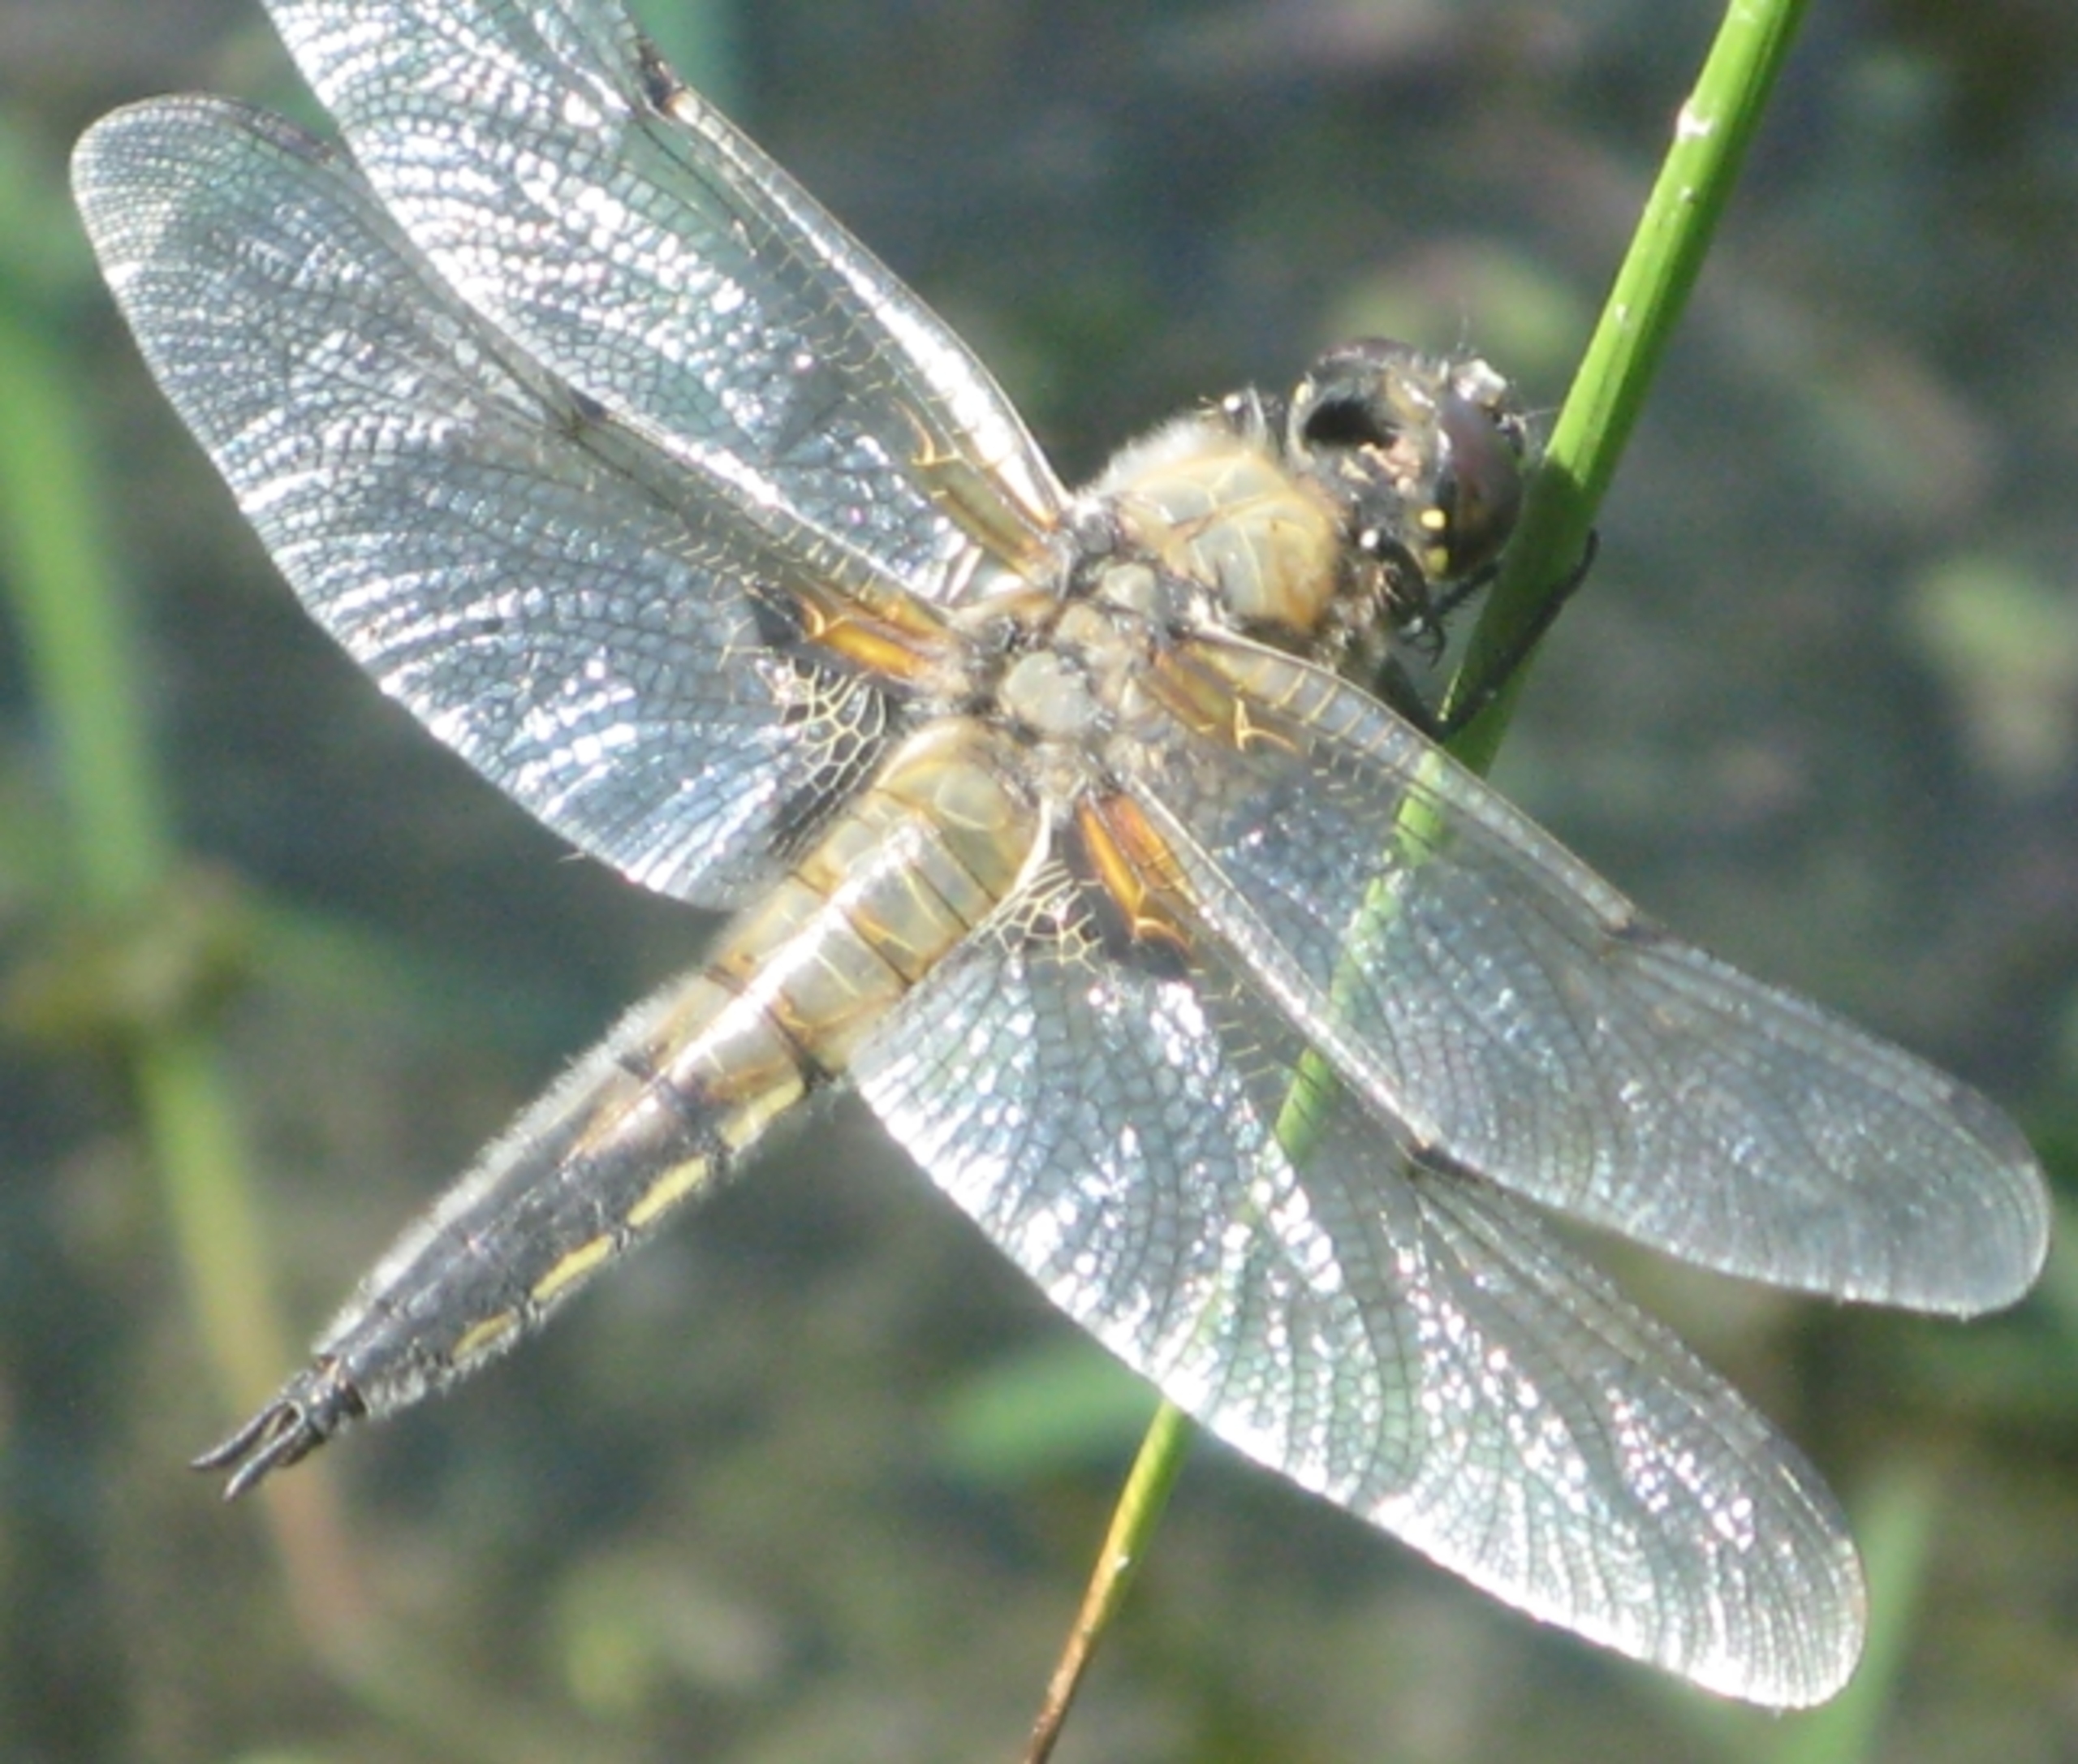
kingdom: Animalia
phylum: Arthropoda
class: Insecta
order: Odonata
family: Libellulidae
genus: Libellula
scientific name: Libellula quadrimaculata
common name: Fireplettet libel
